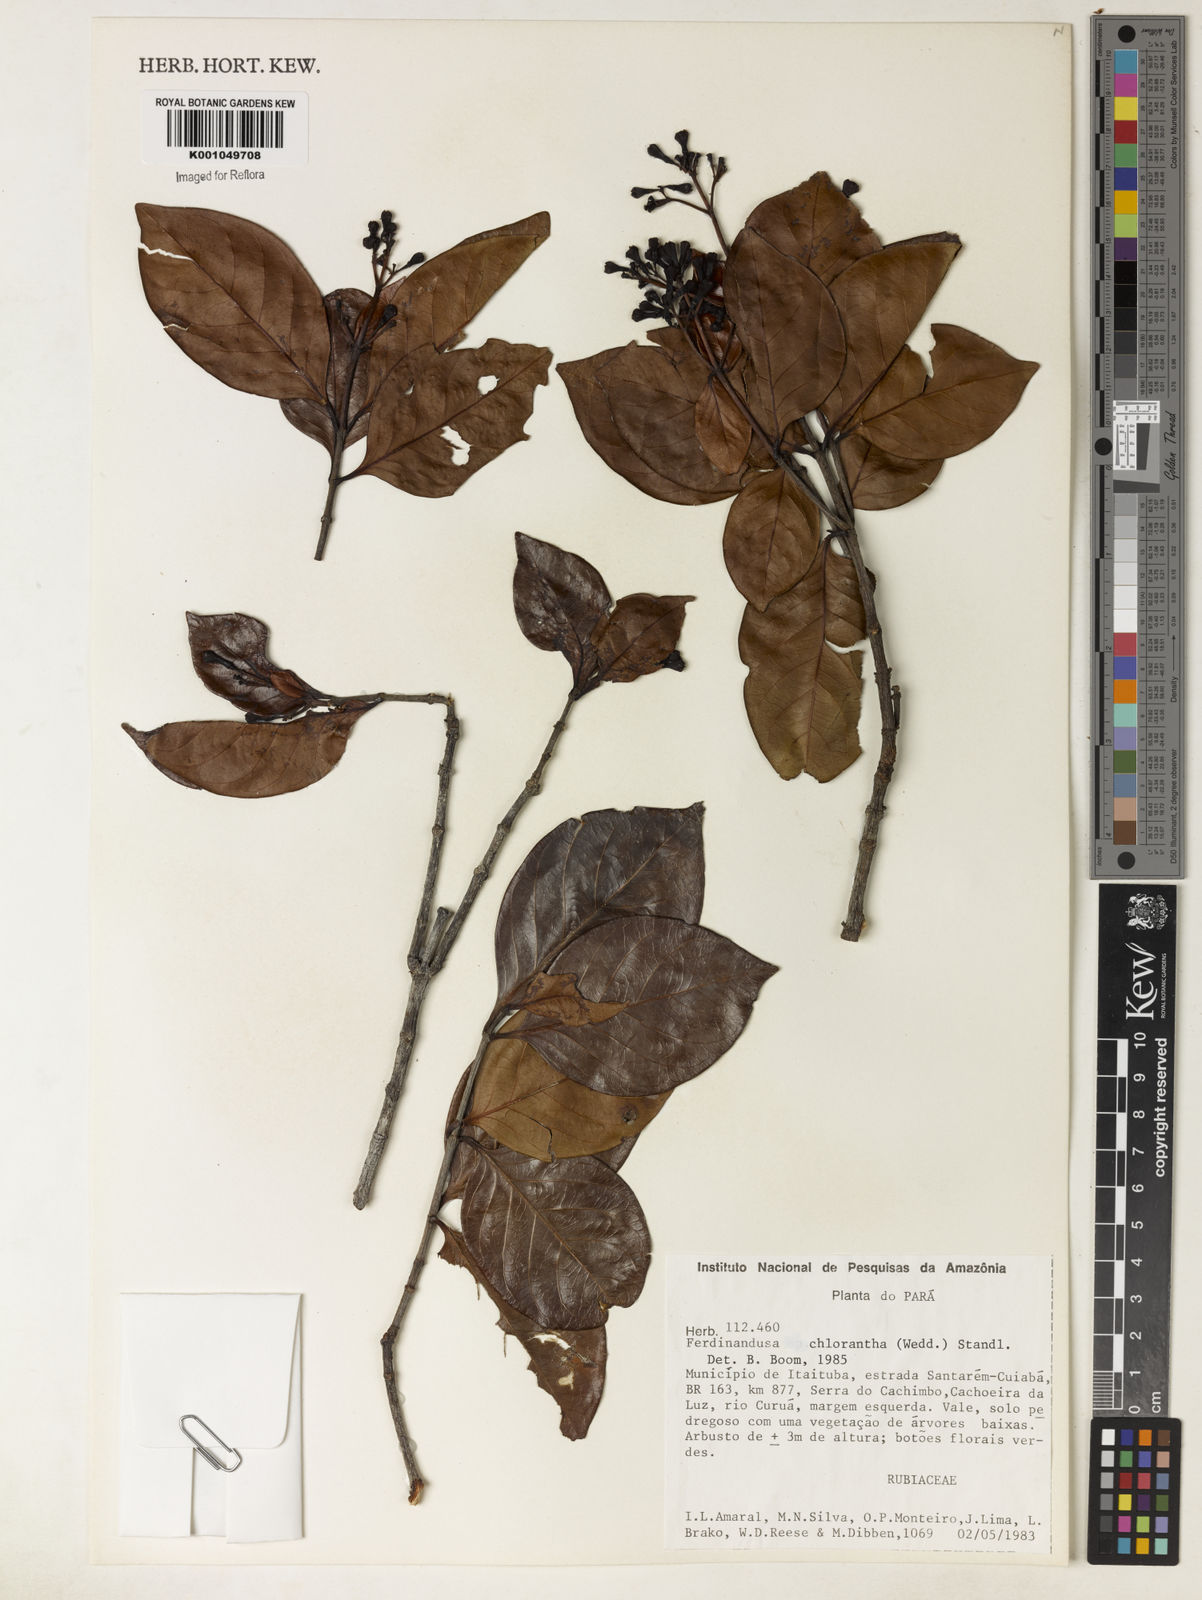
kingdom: Plantae
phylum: Tracheophyta
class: Magnoliopsida
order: Gentianales
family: Rubiaceae
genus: Ferdinandusa
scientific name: Ferdinandusa chlorantha
